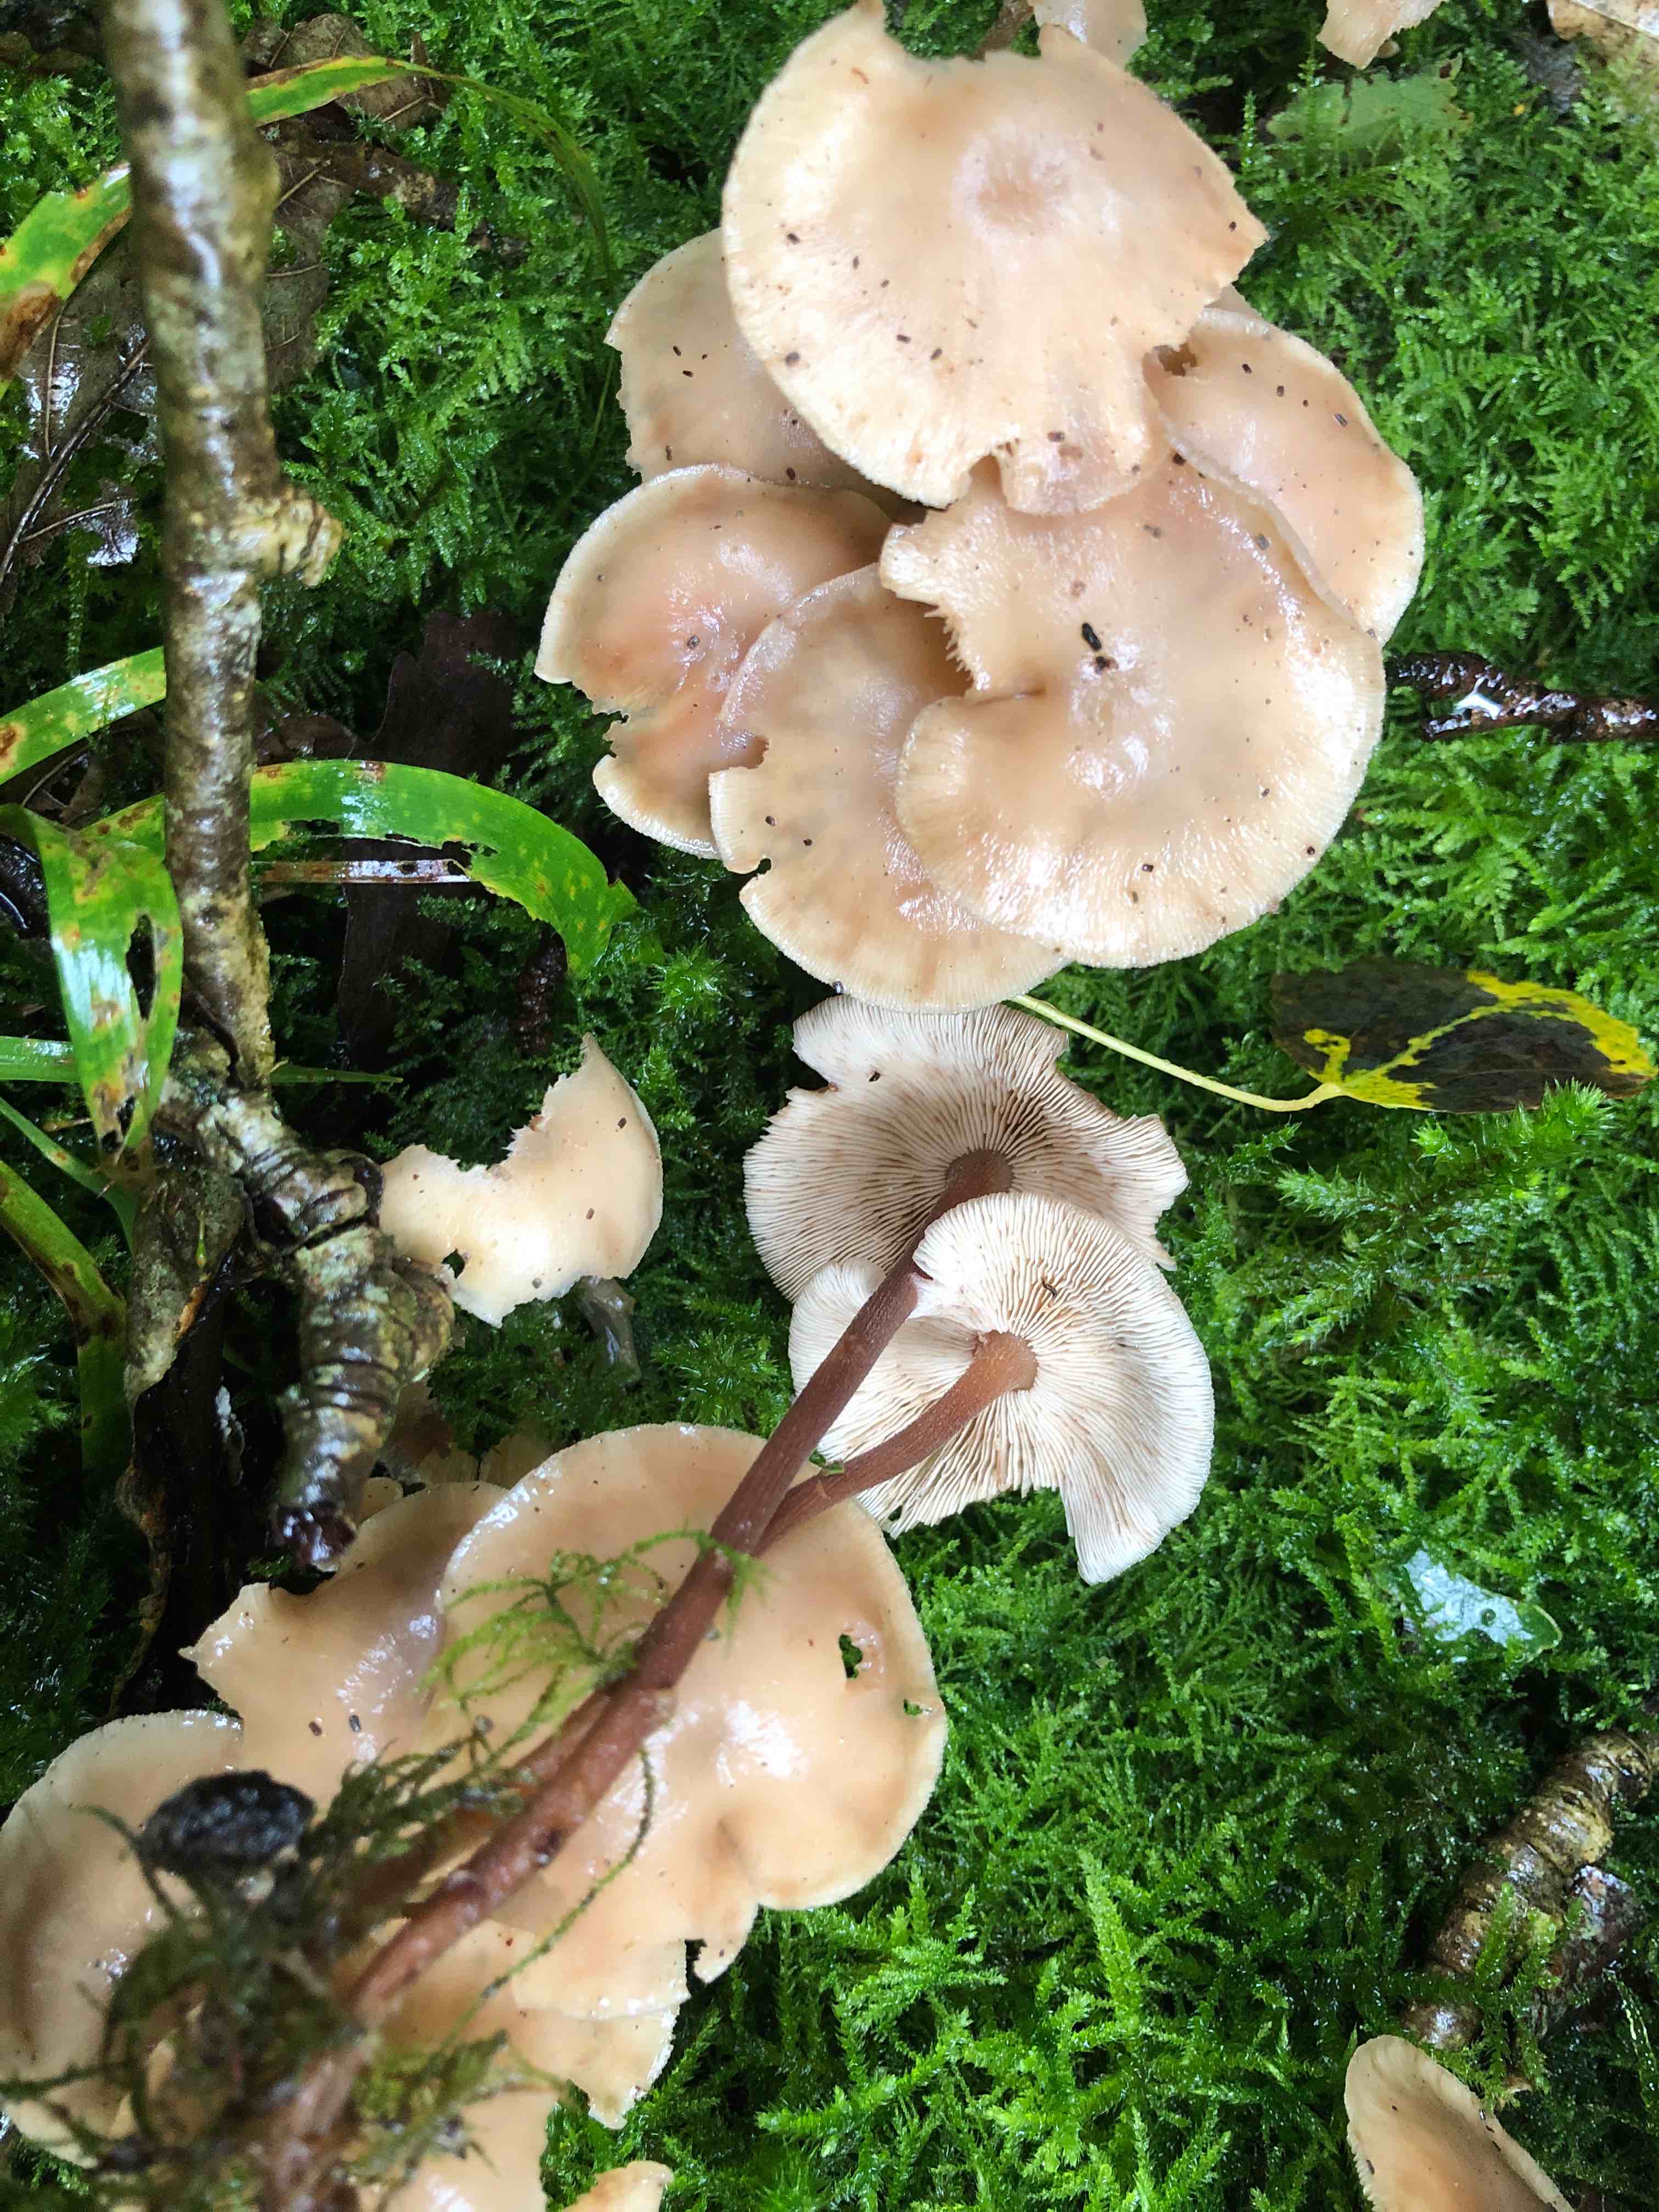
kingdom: Fungi
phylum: Basidiomycota
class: Agaricomycetes
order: Agaricales
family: Omphalotaceae
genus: Collybiopsis
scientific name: Collybiopsis confluens
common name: knippe-fladhat
